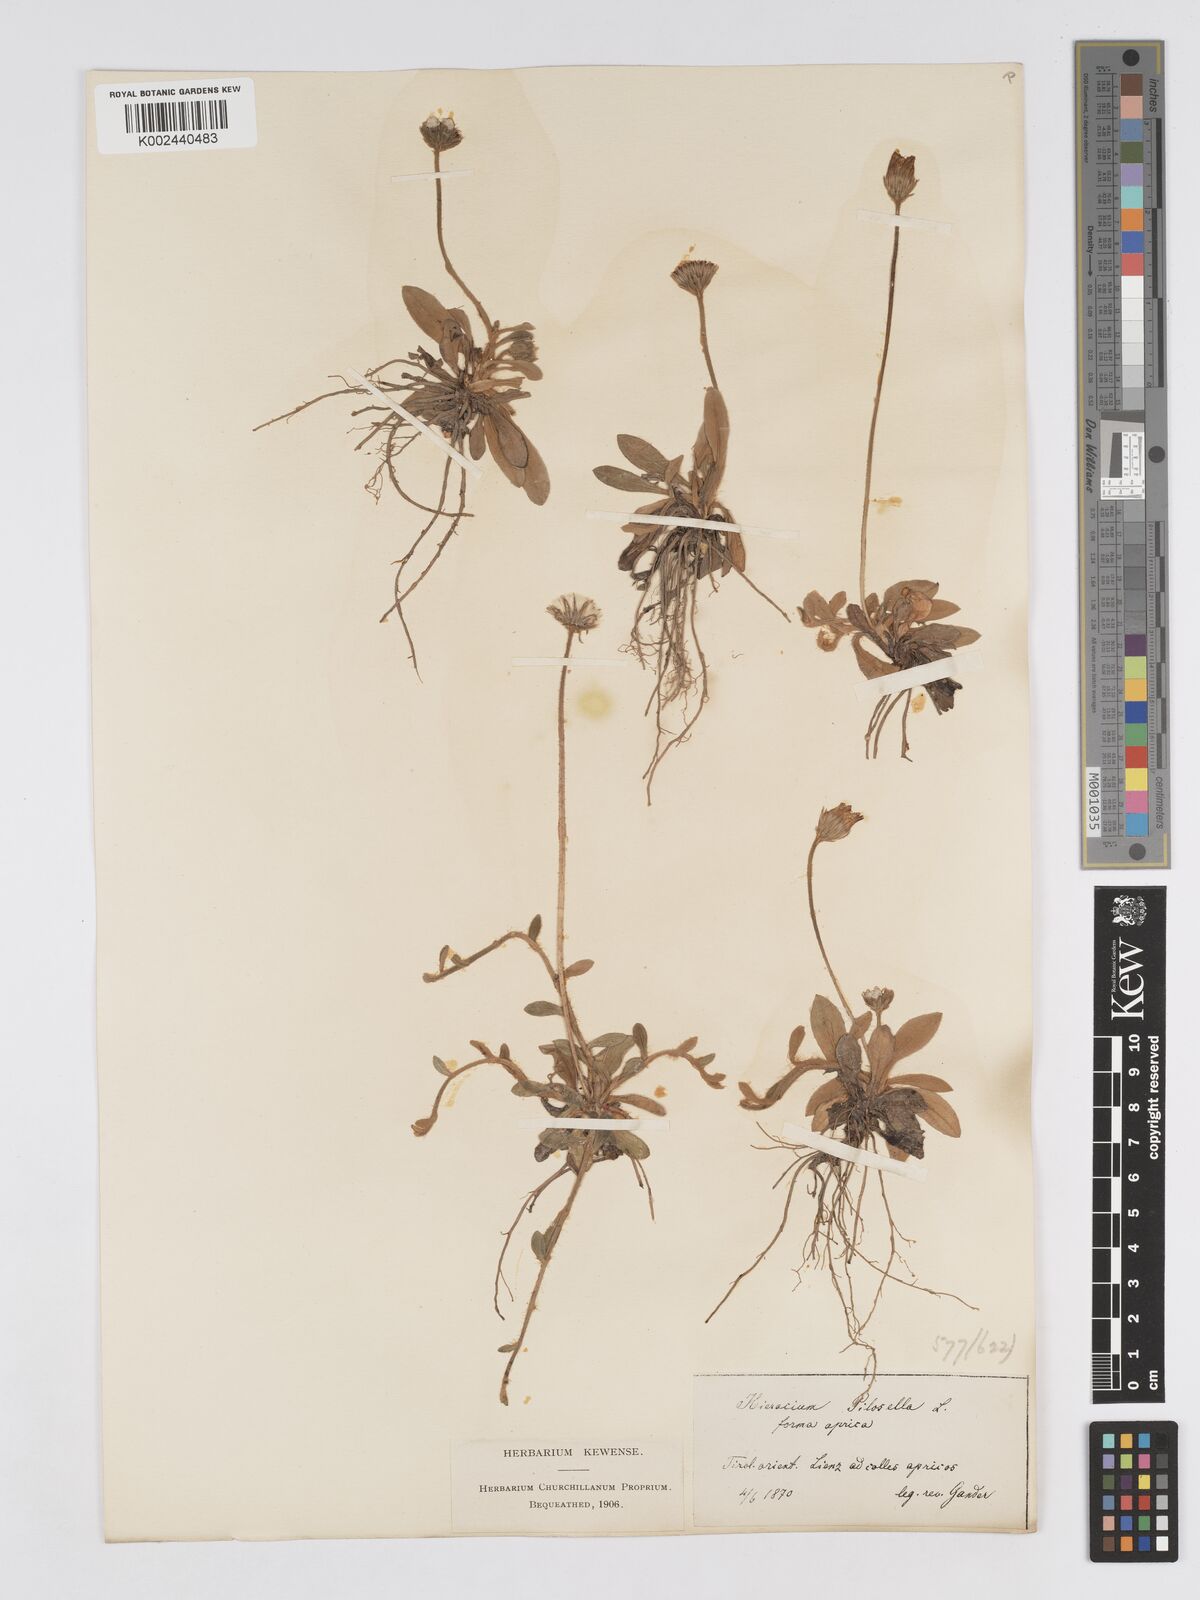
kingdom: Plantae
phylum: Tracheophyta
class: Magnoliopsida
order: Asterales
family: Asteraceae
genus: Pilosella
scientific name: Pilosella velutina
